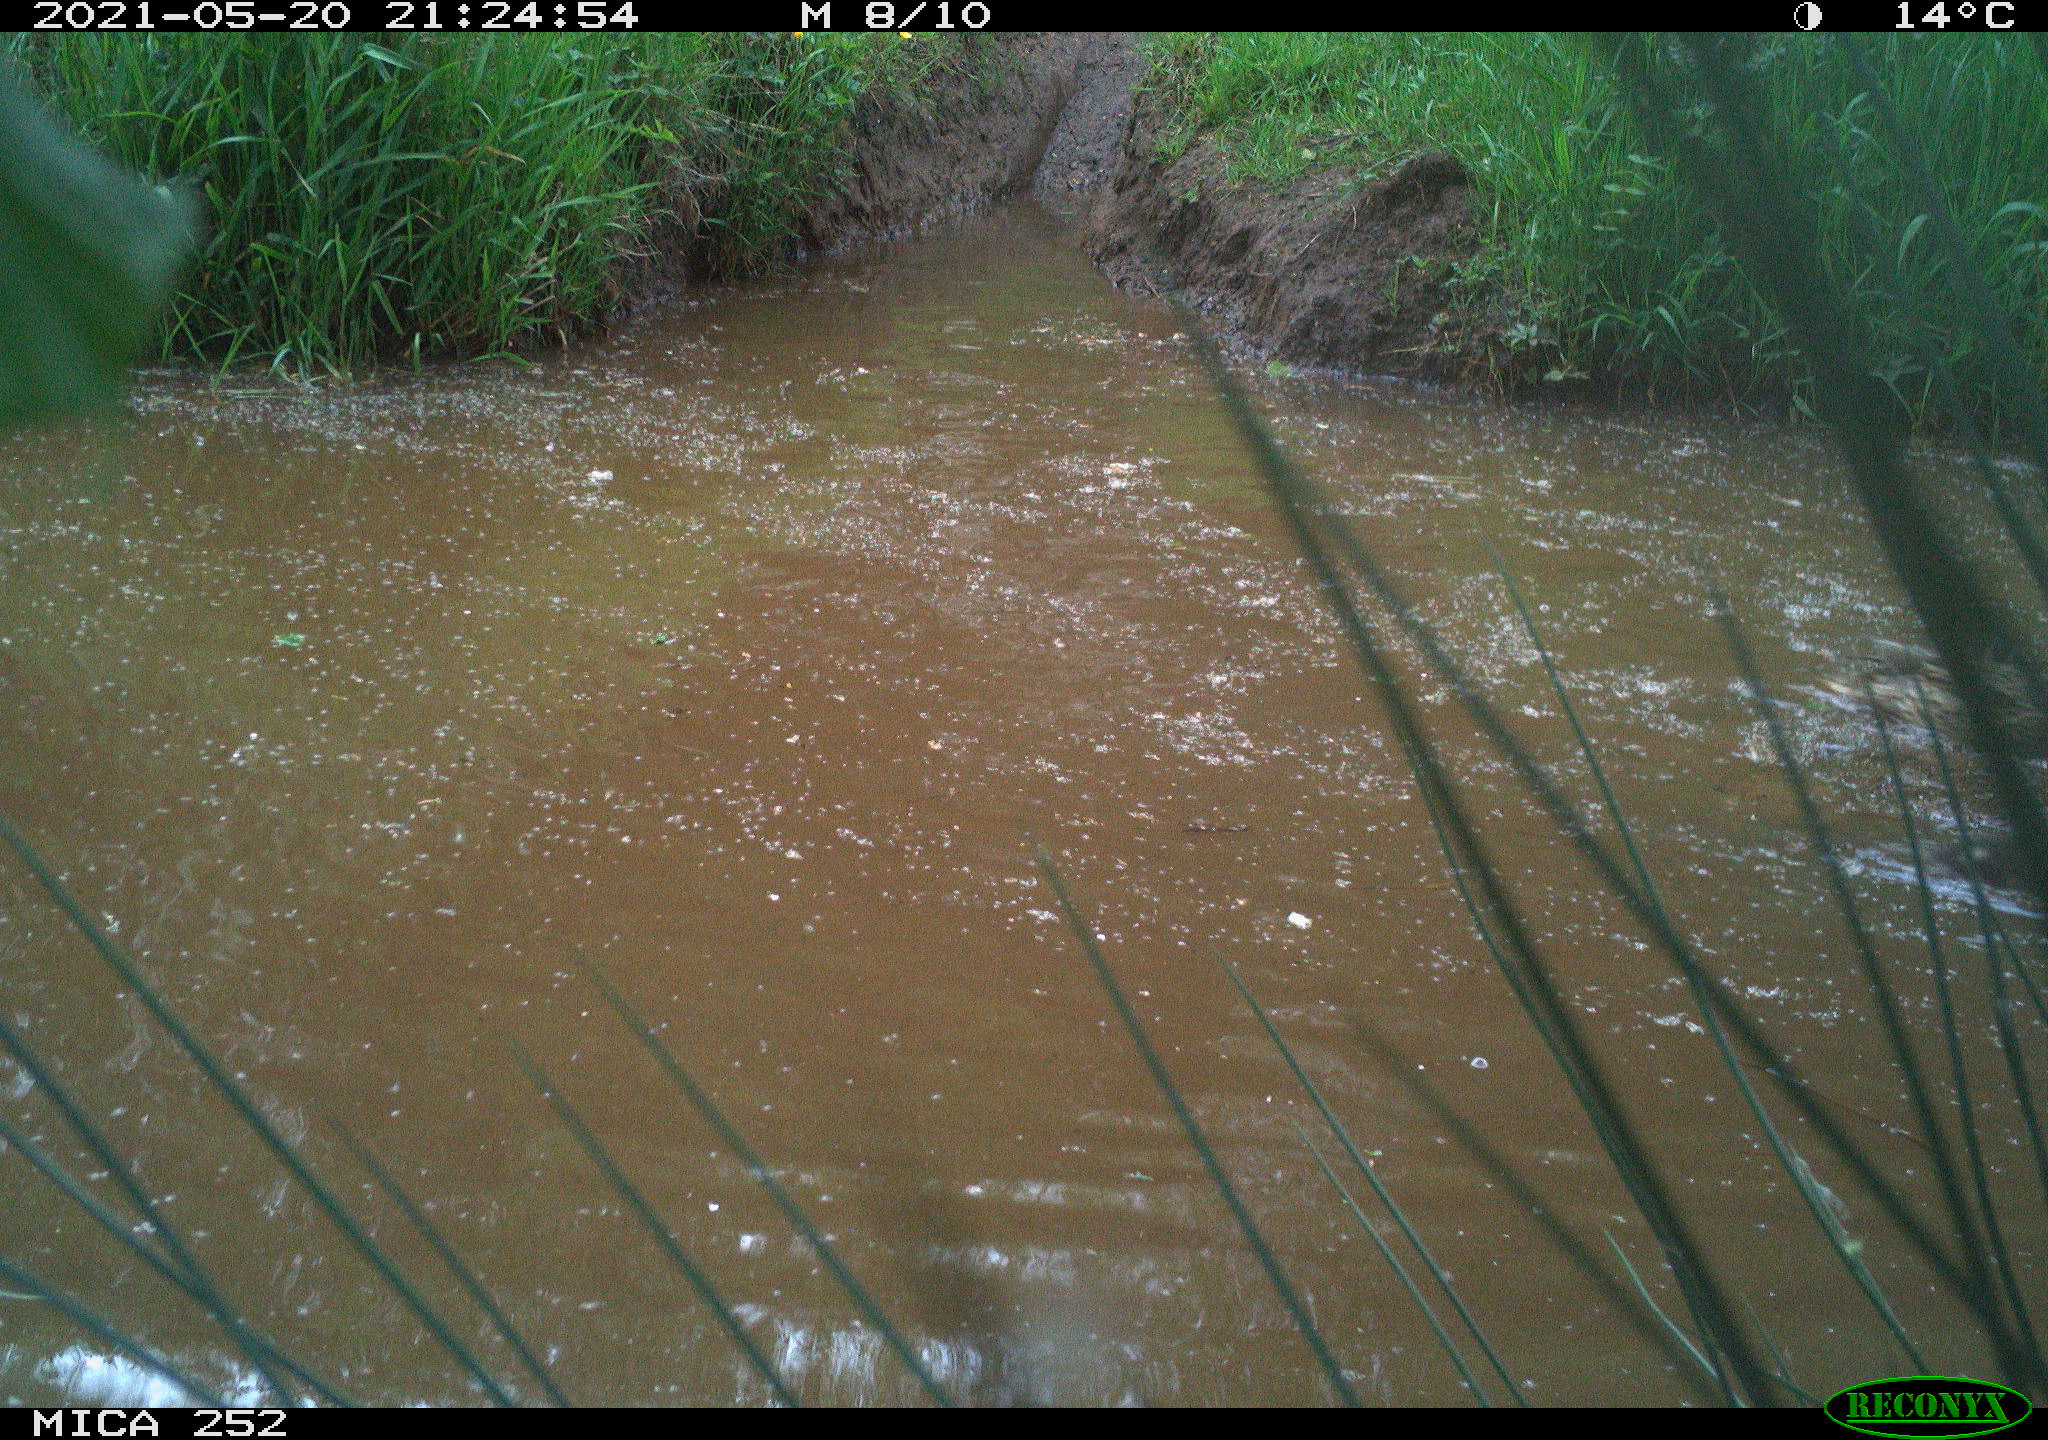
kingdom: Animalia
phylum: Chordata
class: Aves
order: Anseriformes
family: Anatidae
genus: Anas
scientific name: Anas platyrhynchos
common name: Mallard
